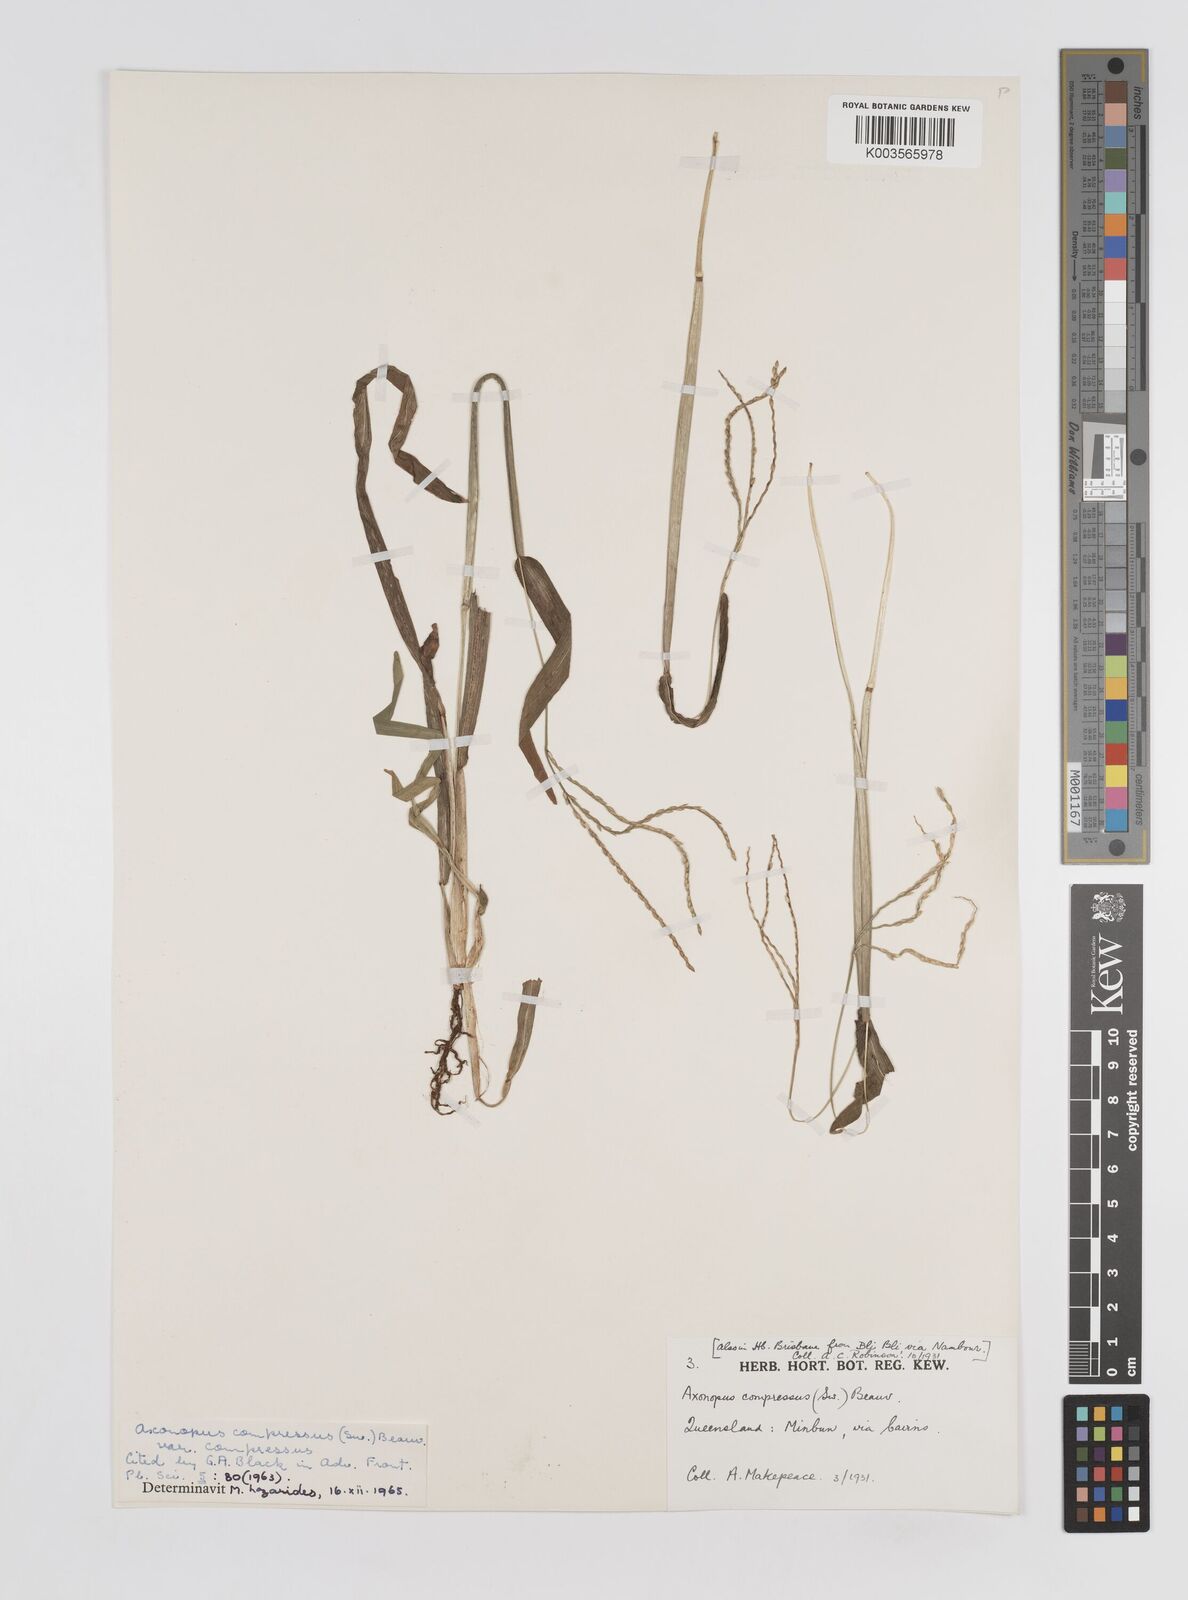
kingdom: Plantae
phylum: Tracheophyta
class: Liliopsida
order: Poales
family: Poaceae
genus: Axonopus
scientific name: Axonopus compressus
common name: American carpet grass
